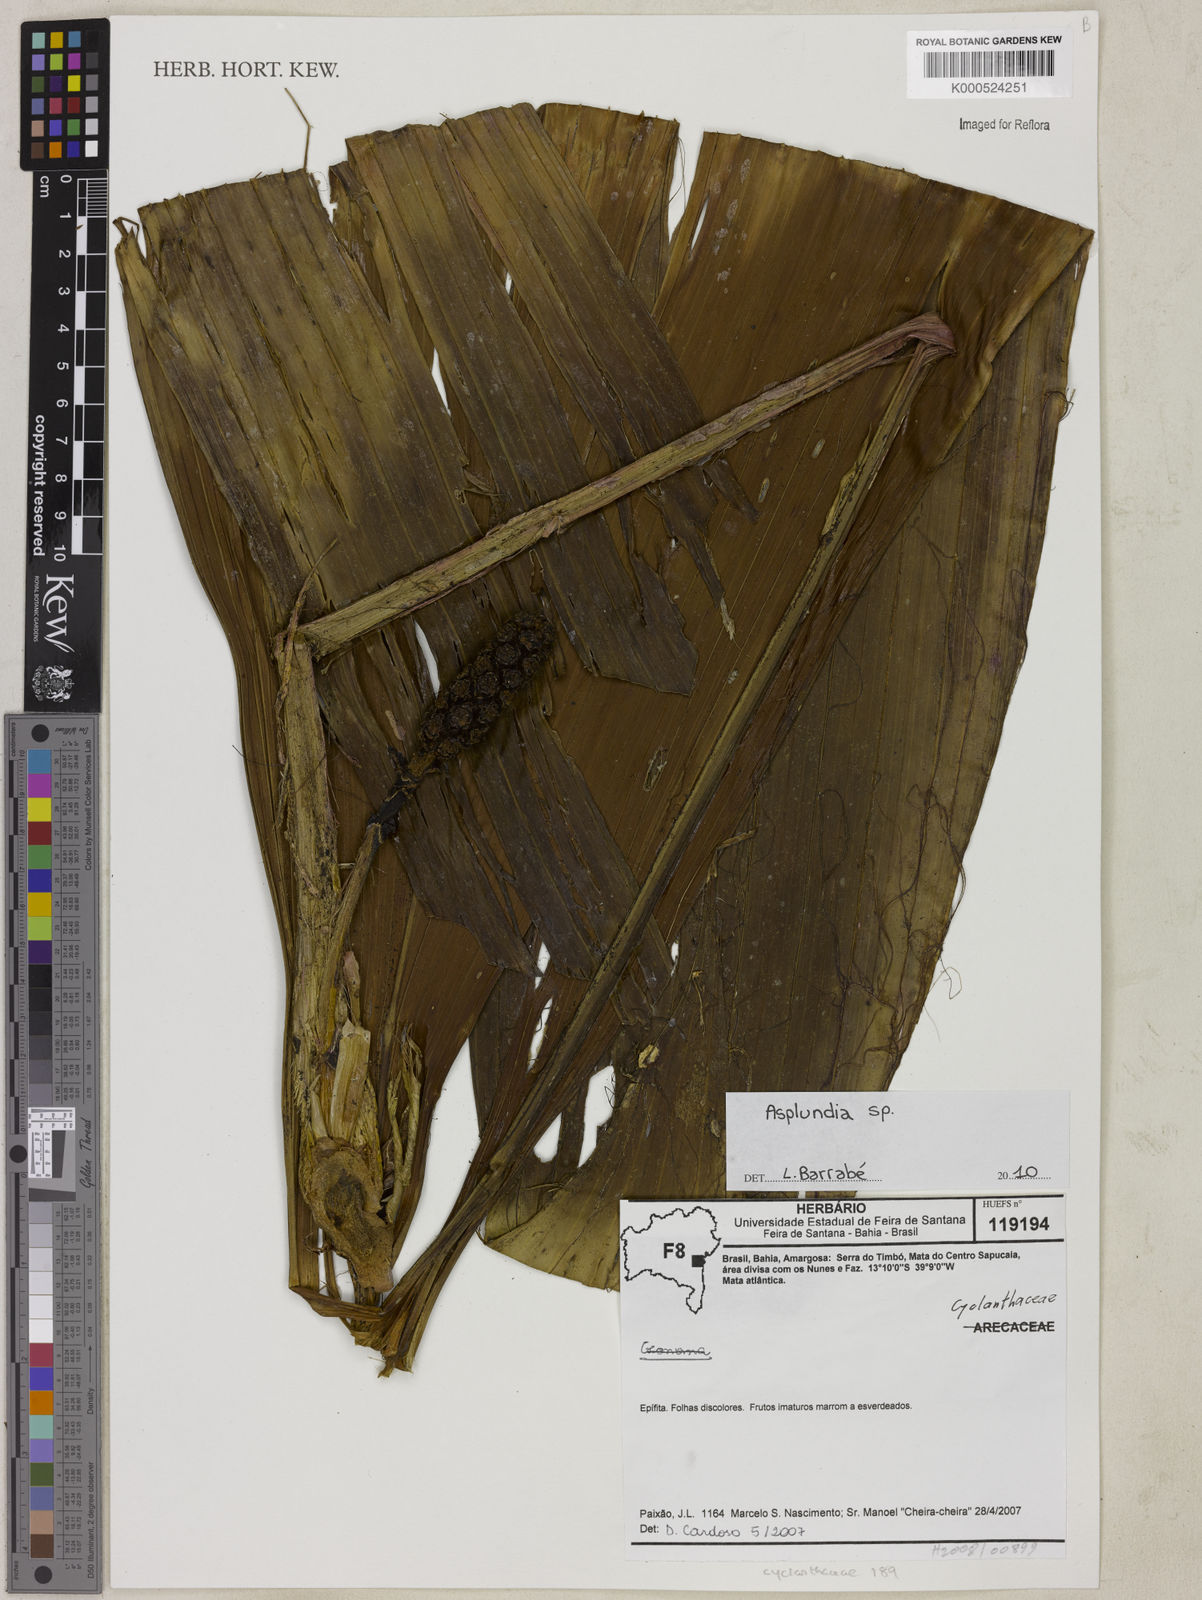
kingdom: Plantae
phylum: Tracheophyta
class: Liliopsida
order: Pandanales
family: Cyclanthaceae
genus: Asplundia
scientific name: Asplundia
